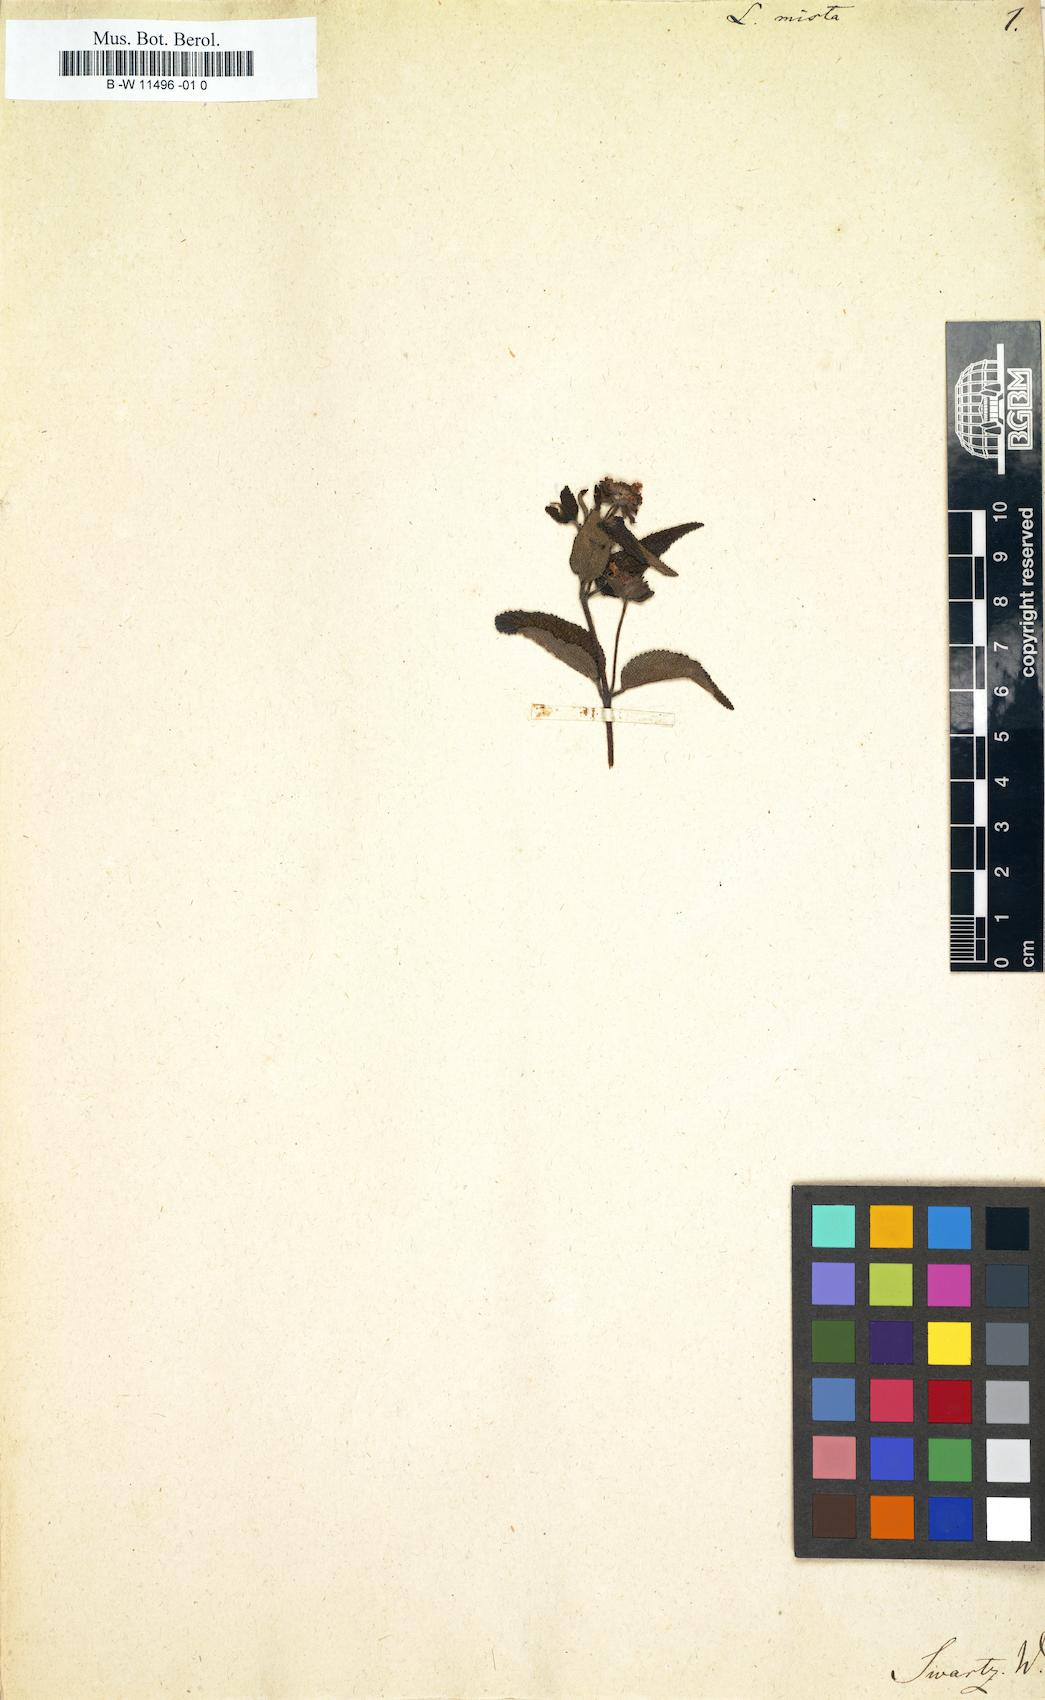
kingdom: Plantae
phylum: Tracheophyta
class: Magnoliopsida
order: Lamiales
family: Verbenaceae
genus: Lantana
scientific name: Lantana mista
